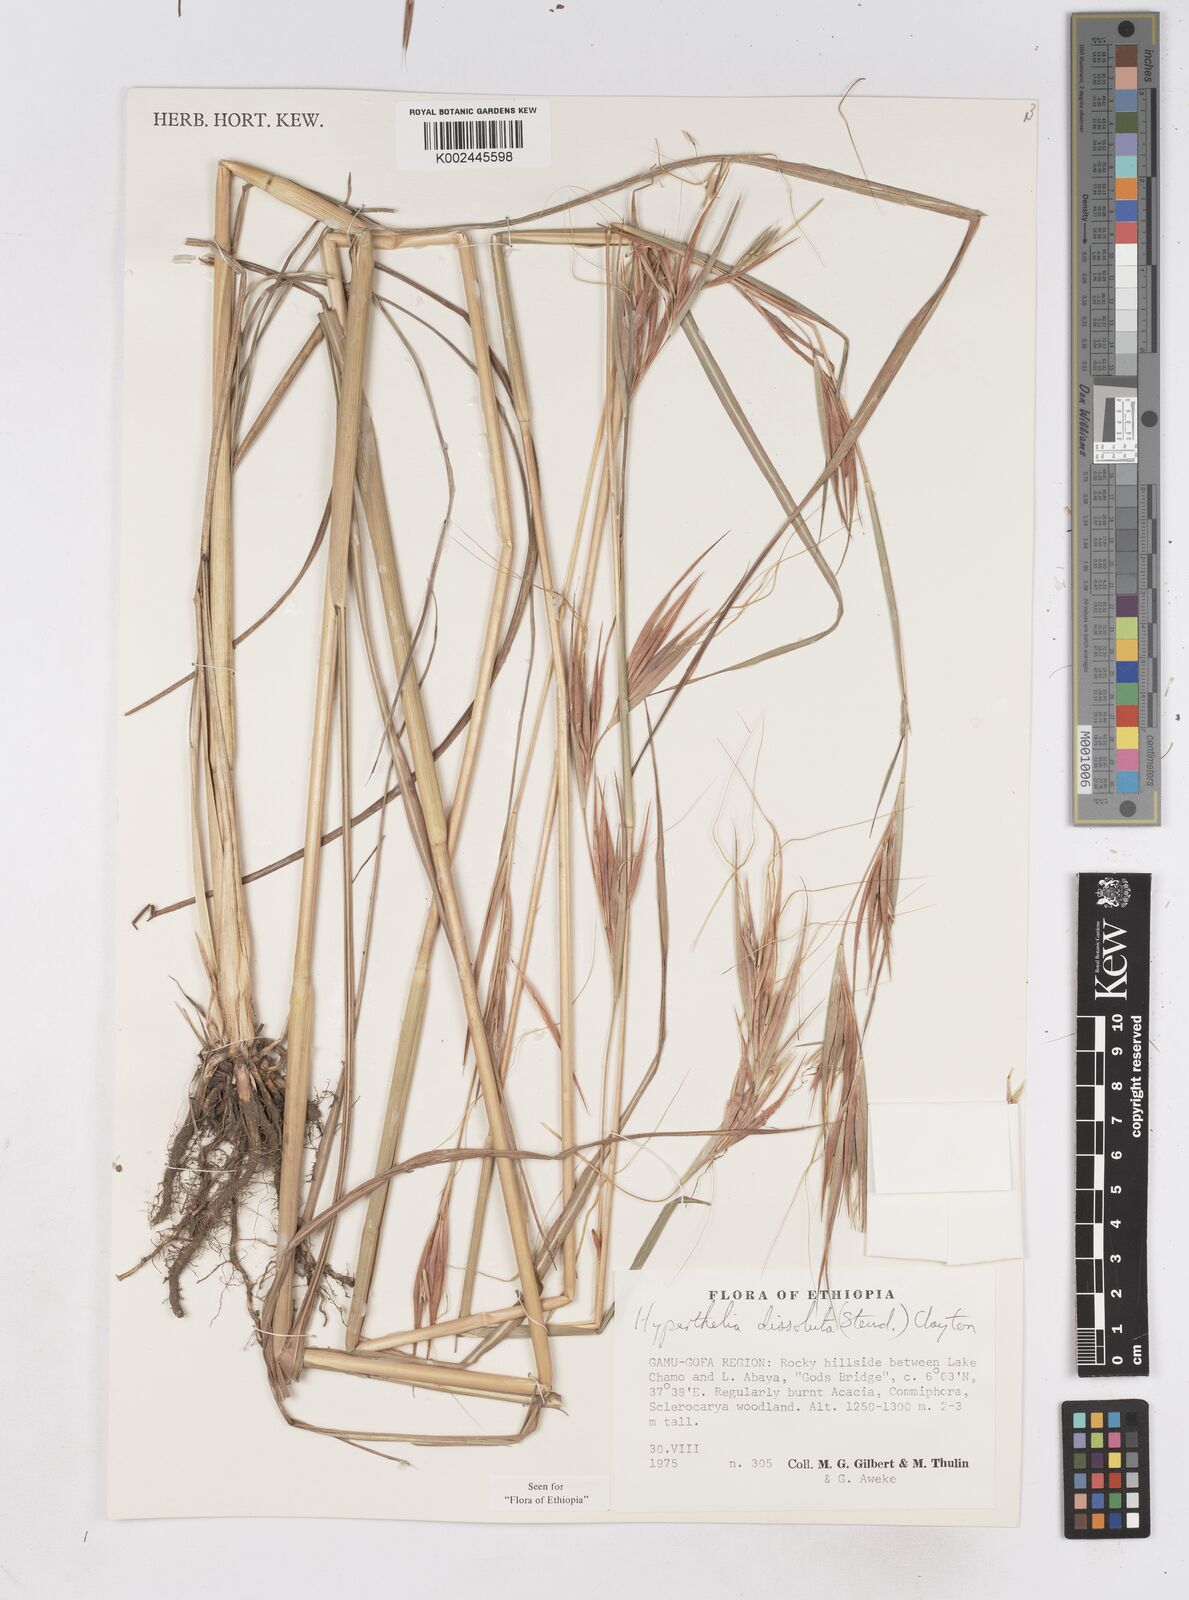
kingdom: Plantae
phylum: Tracheophyta
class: Liliopsida
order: Poales
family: Poaceae
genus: Hyperthelia
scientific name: Hyperthelia dissoluta
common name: Yellow thatching grass
